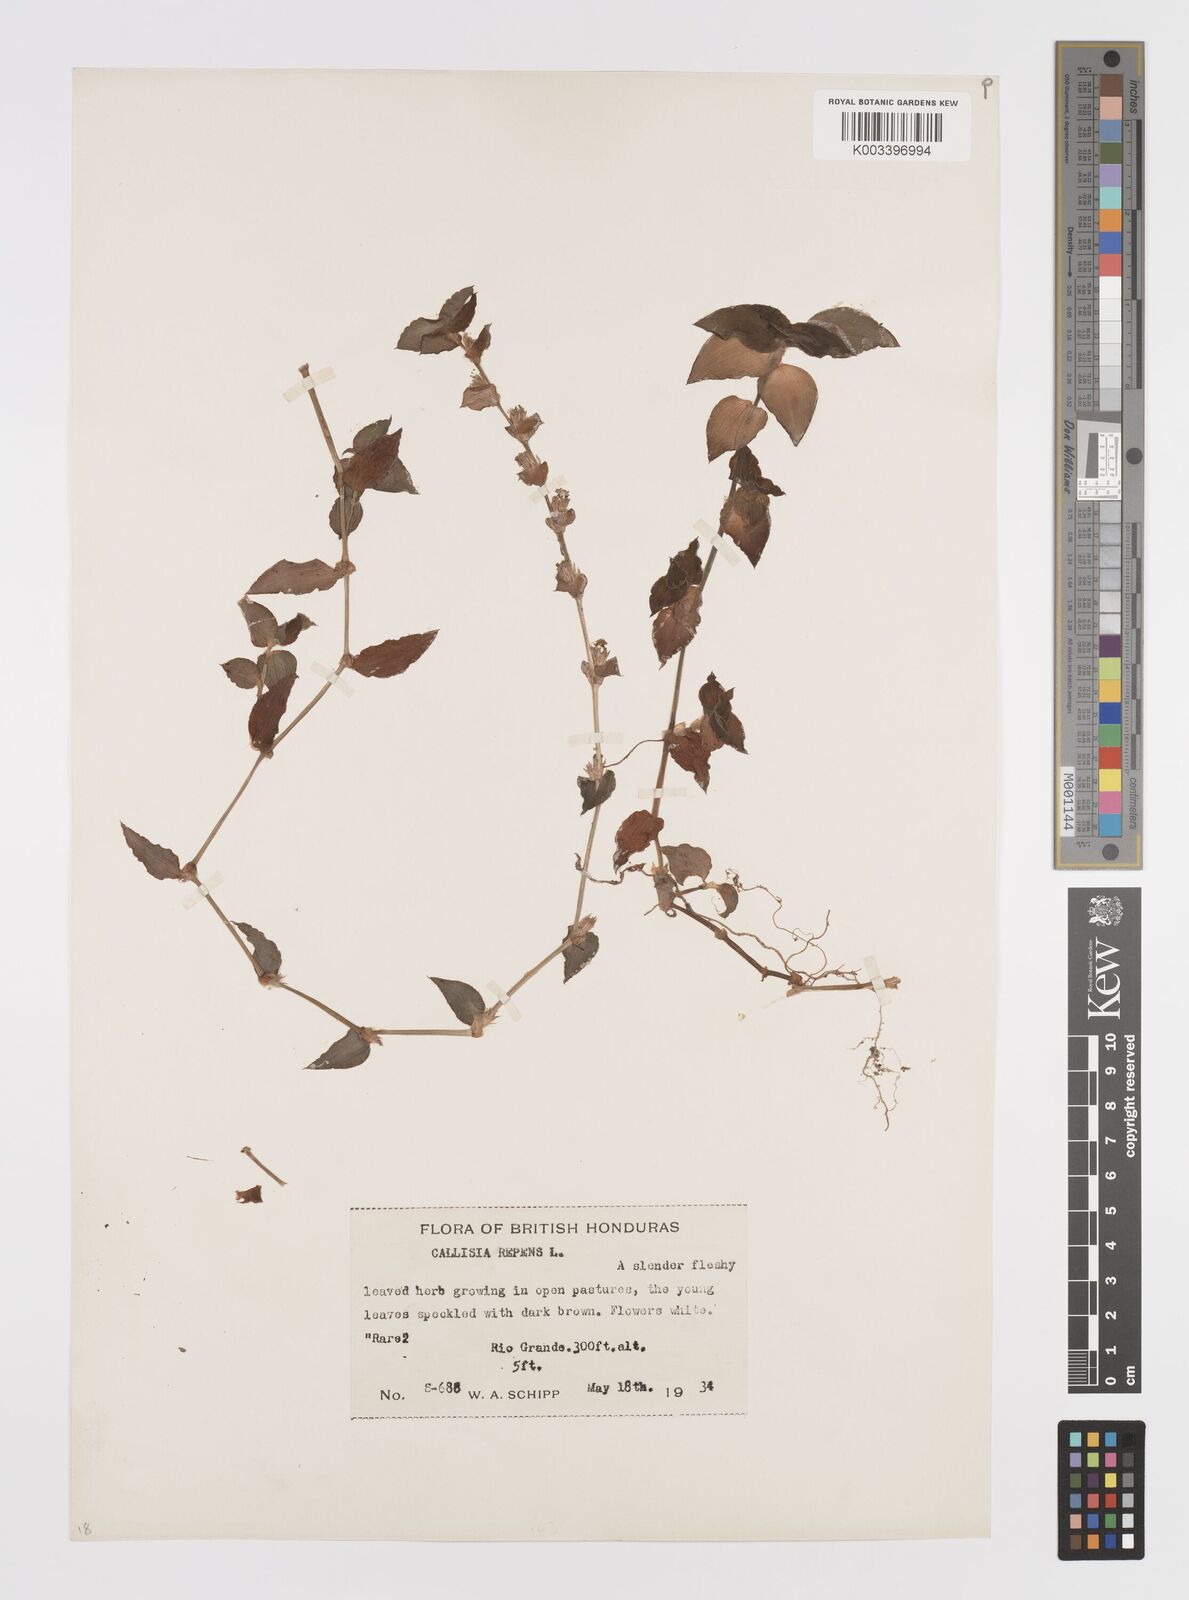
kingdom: Plantae
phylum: Tracheophyta
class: Liliopsida
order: Commelinales
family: Commelinaceae
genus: Callisia
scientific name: Callisia repens
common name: Creeping inchplant
